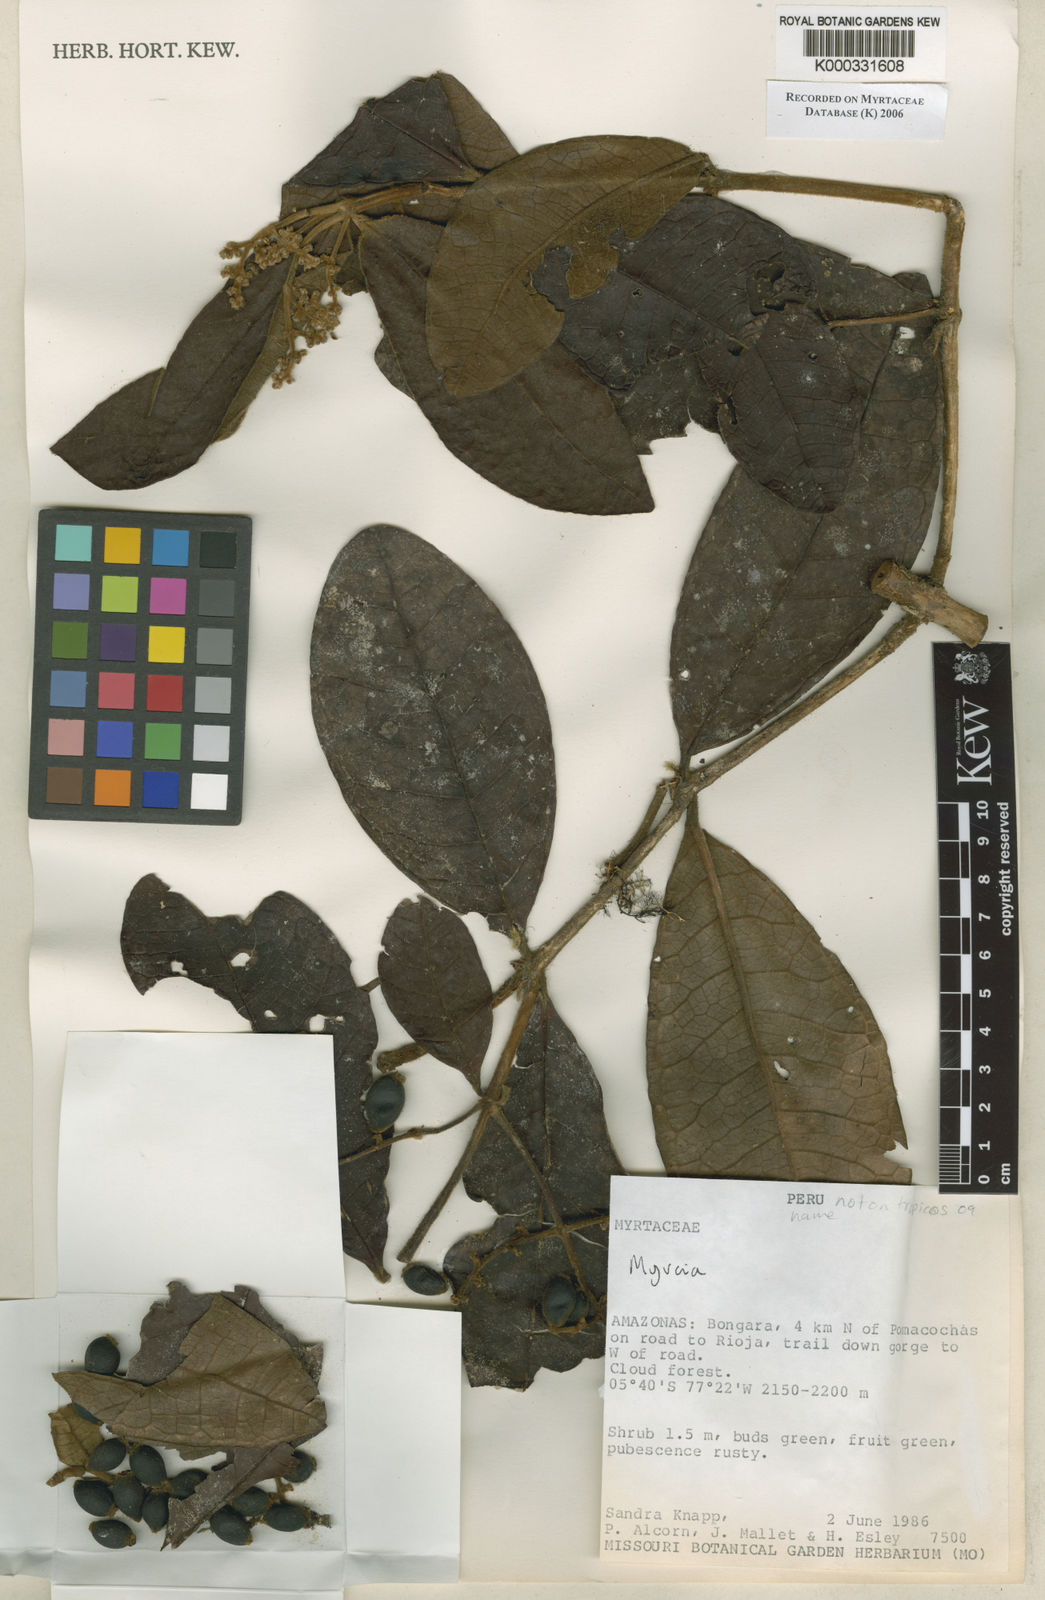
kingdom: Plantae
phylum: Tracheophyta
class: Magnoliopsida
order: Myrtales
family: Myrtaceae
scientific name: Myrtaceae
